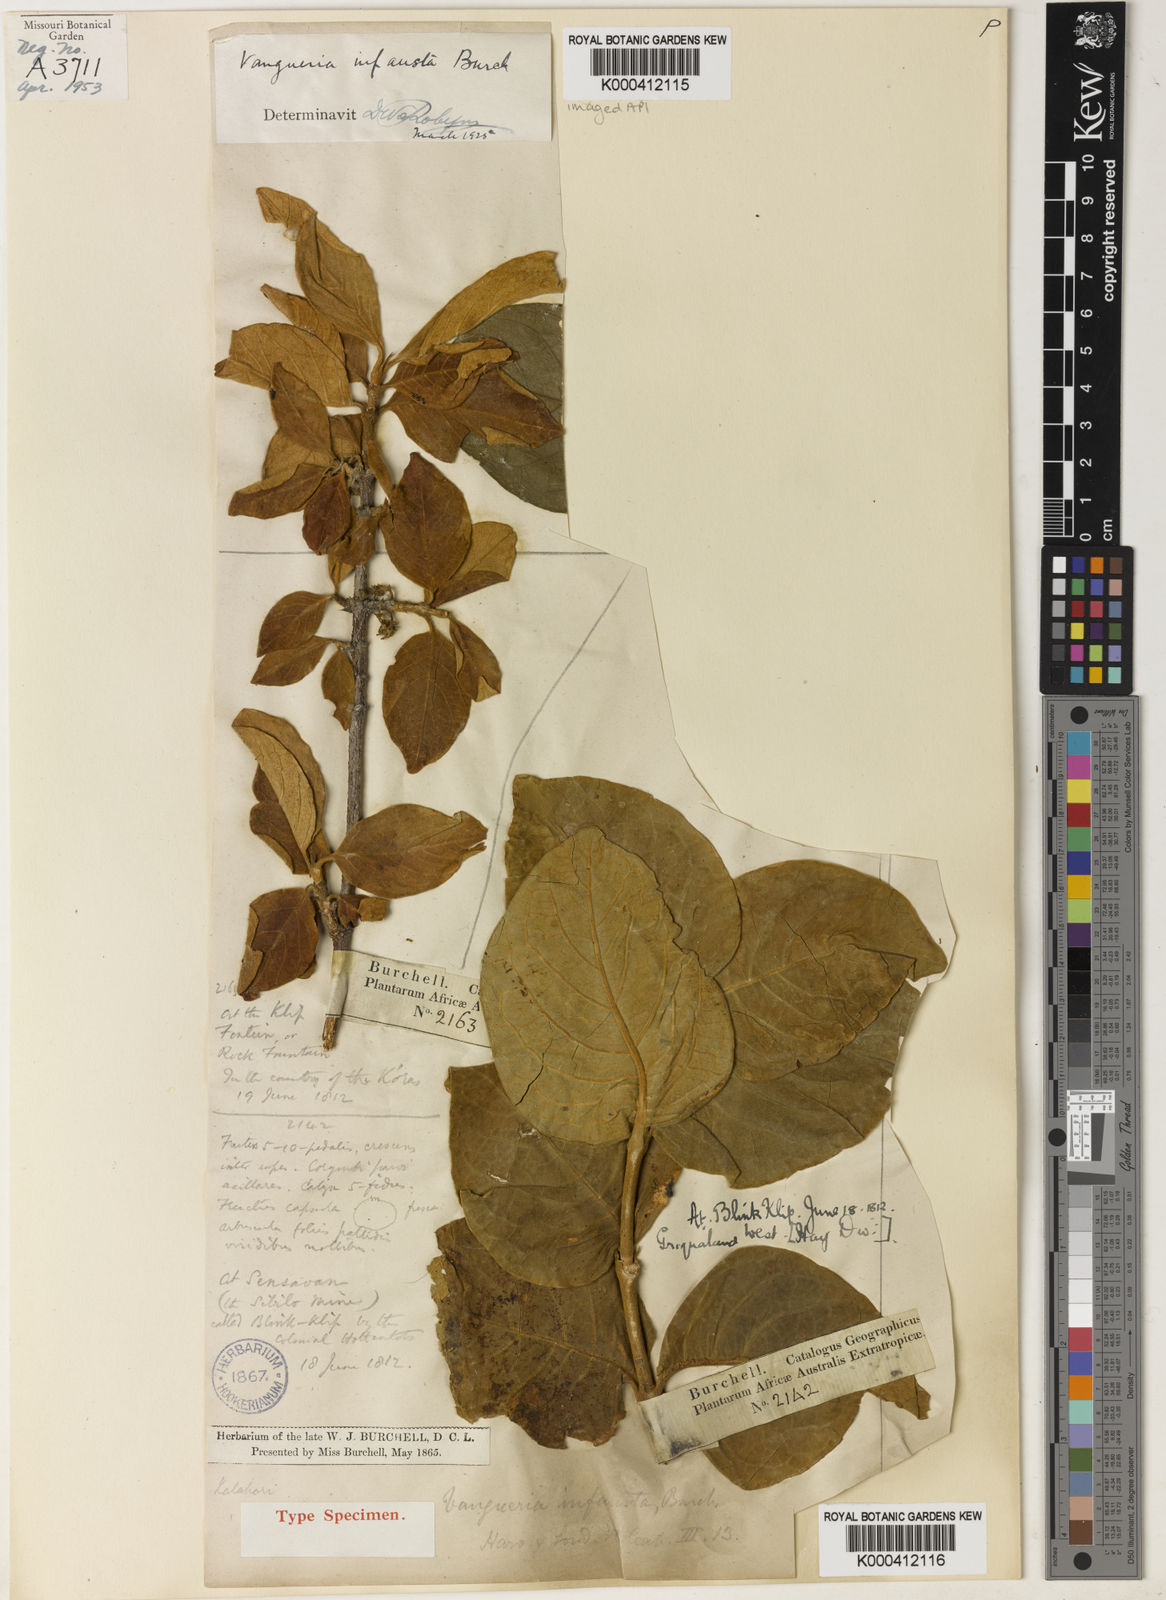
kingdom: Plantae
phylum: Tracheophyta
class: Magnoliopsida
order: Gentianales
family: Rubiaceae
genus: Vangueria
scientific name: Vangueria infausta
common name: Medlar
